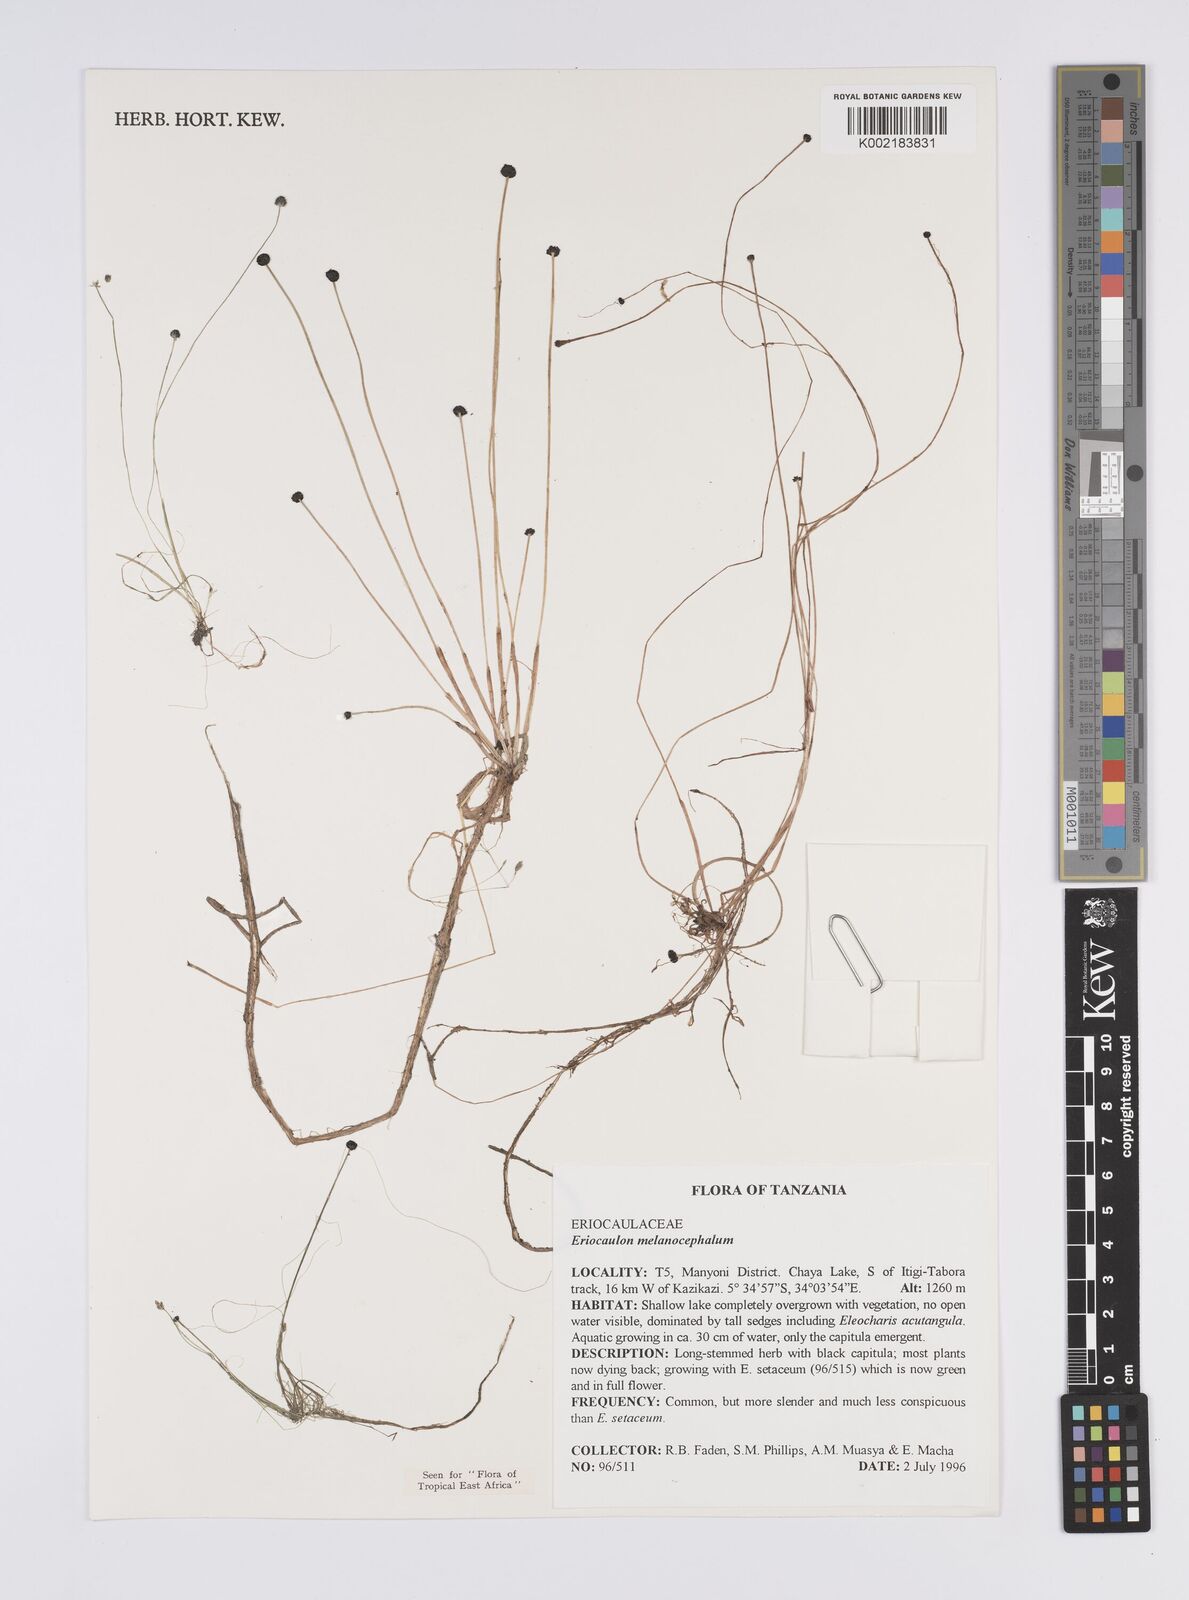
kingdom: Plantae
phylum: Tracheophyta
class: Liliopsida
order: Poales
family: Eriocaulaceae
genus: Eriocaulon
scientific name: Eriocaulon setaceum
